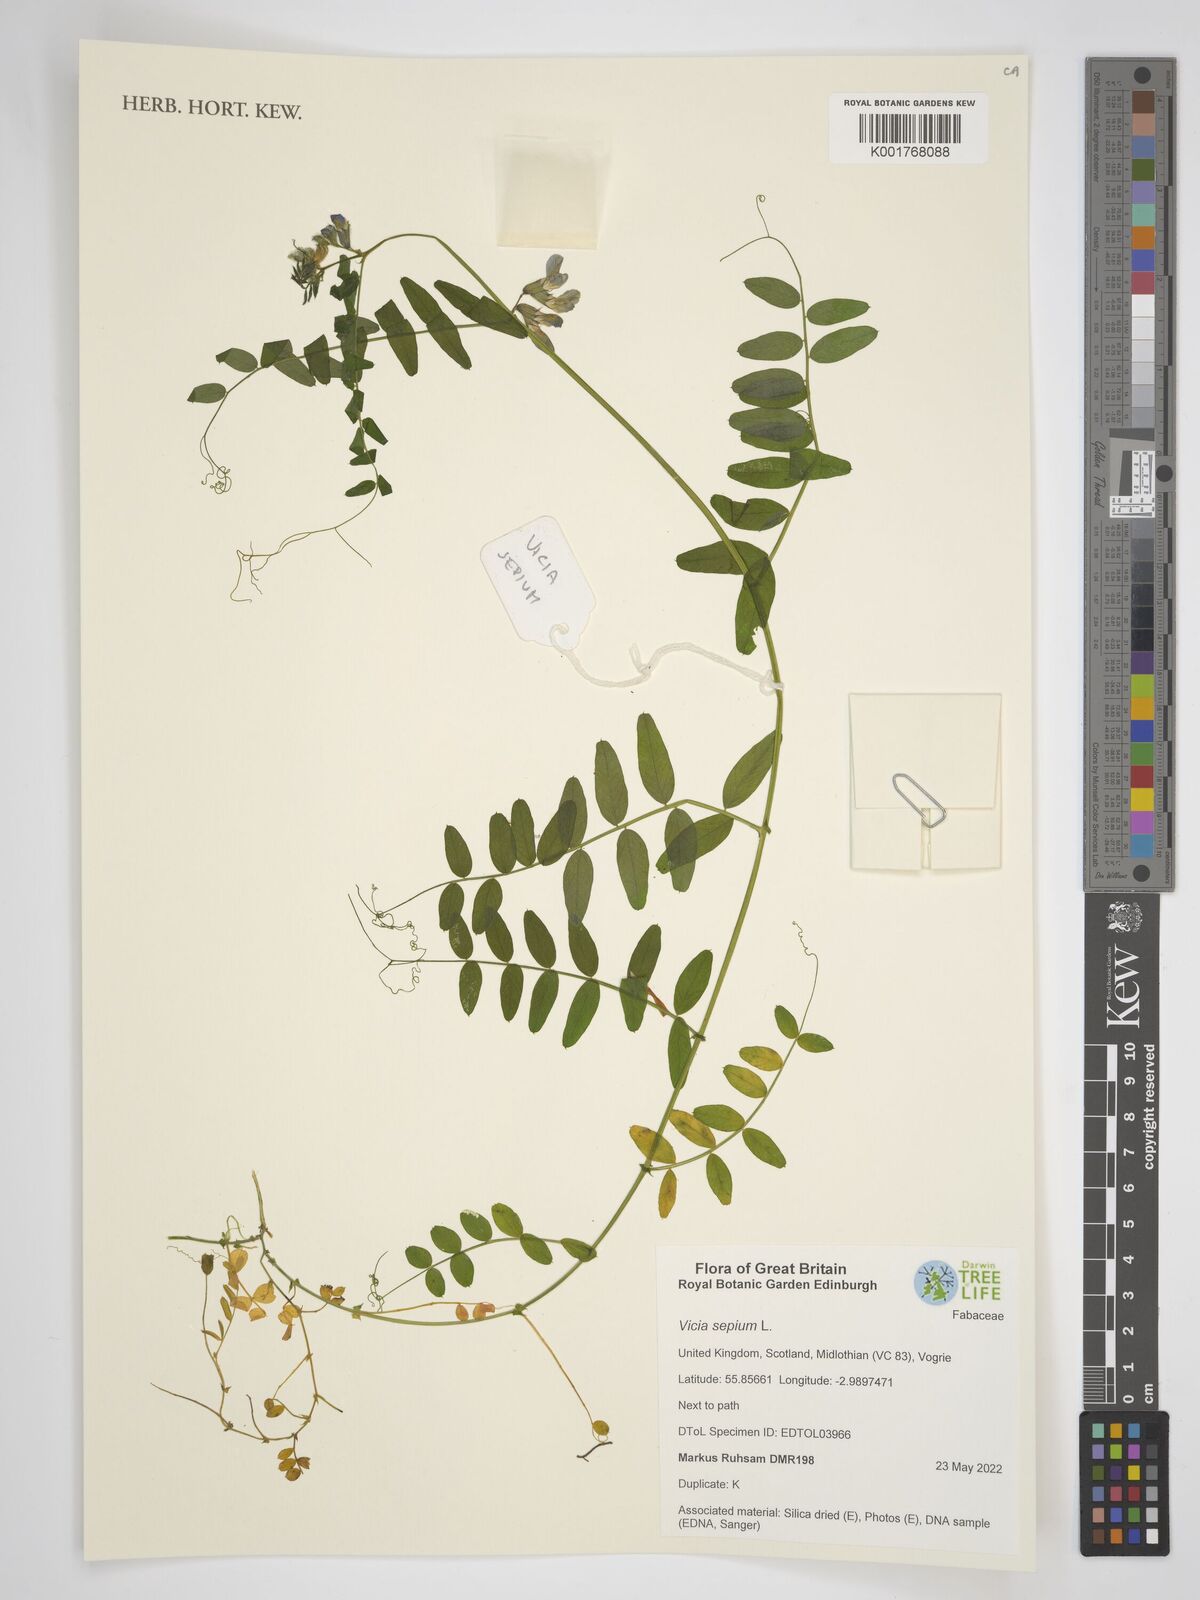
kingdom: Plantae
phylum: Tracheophyta
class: Magnoliopsida
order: Fabales
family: Fabaceae
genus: Vicia
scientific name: Vicia sepium
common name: Bush vetch
